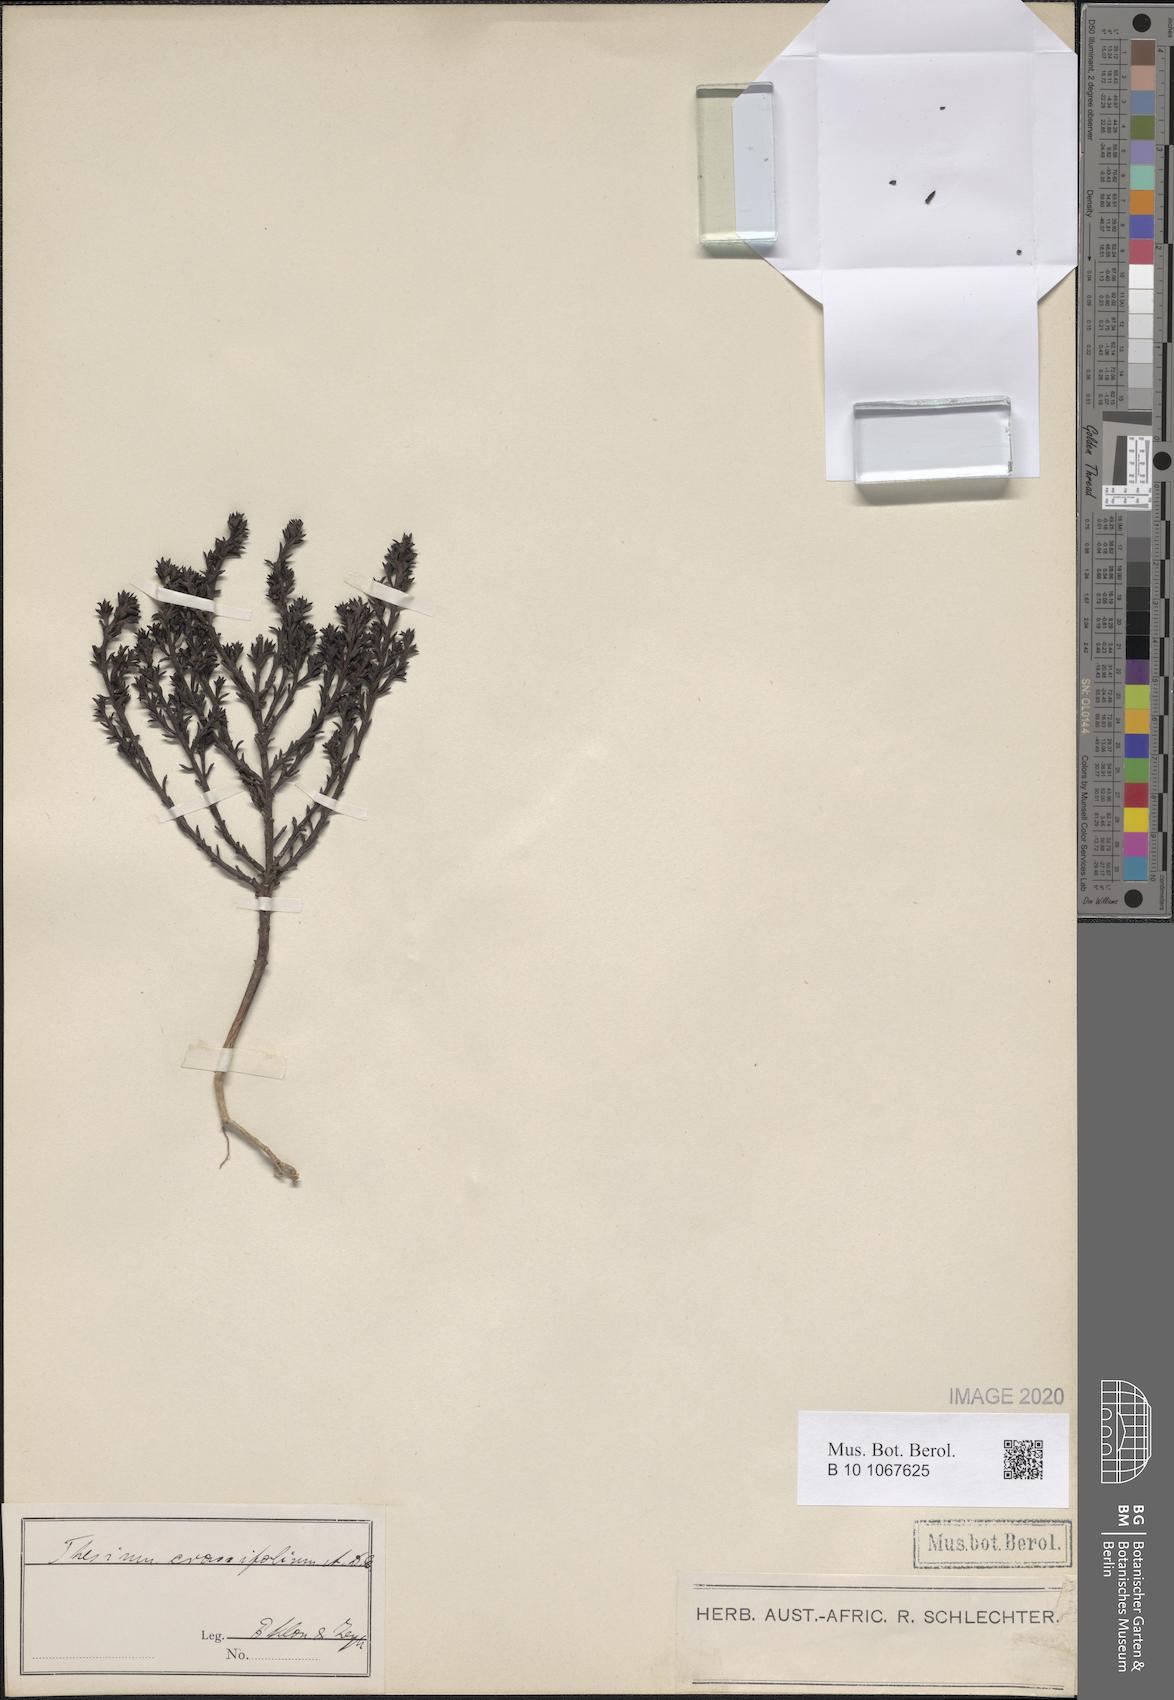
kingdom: Plantae
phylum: Tracheophyta
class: Magnoliopsida
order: Santalales
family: Thesiaceae
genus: Thesium
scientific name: Thesium sedifolium
